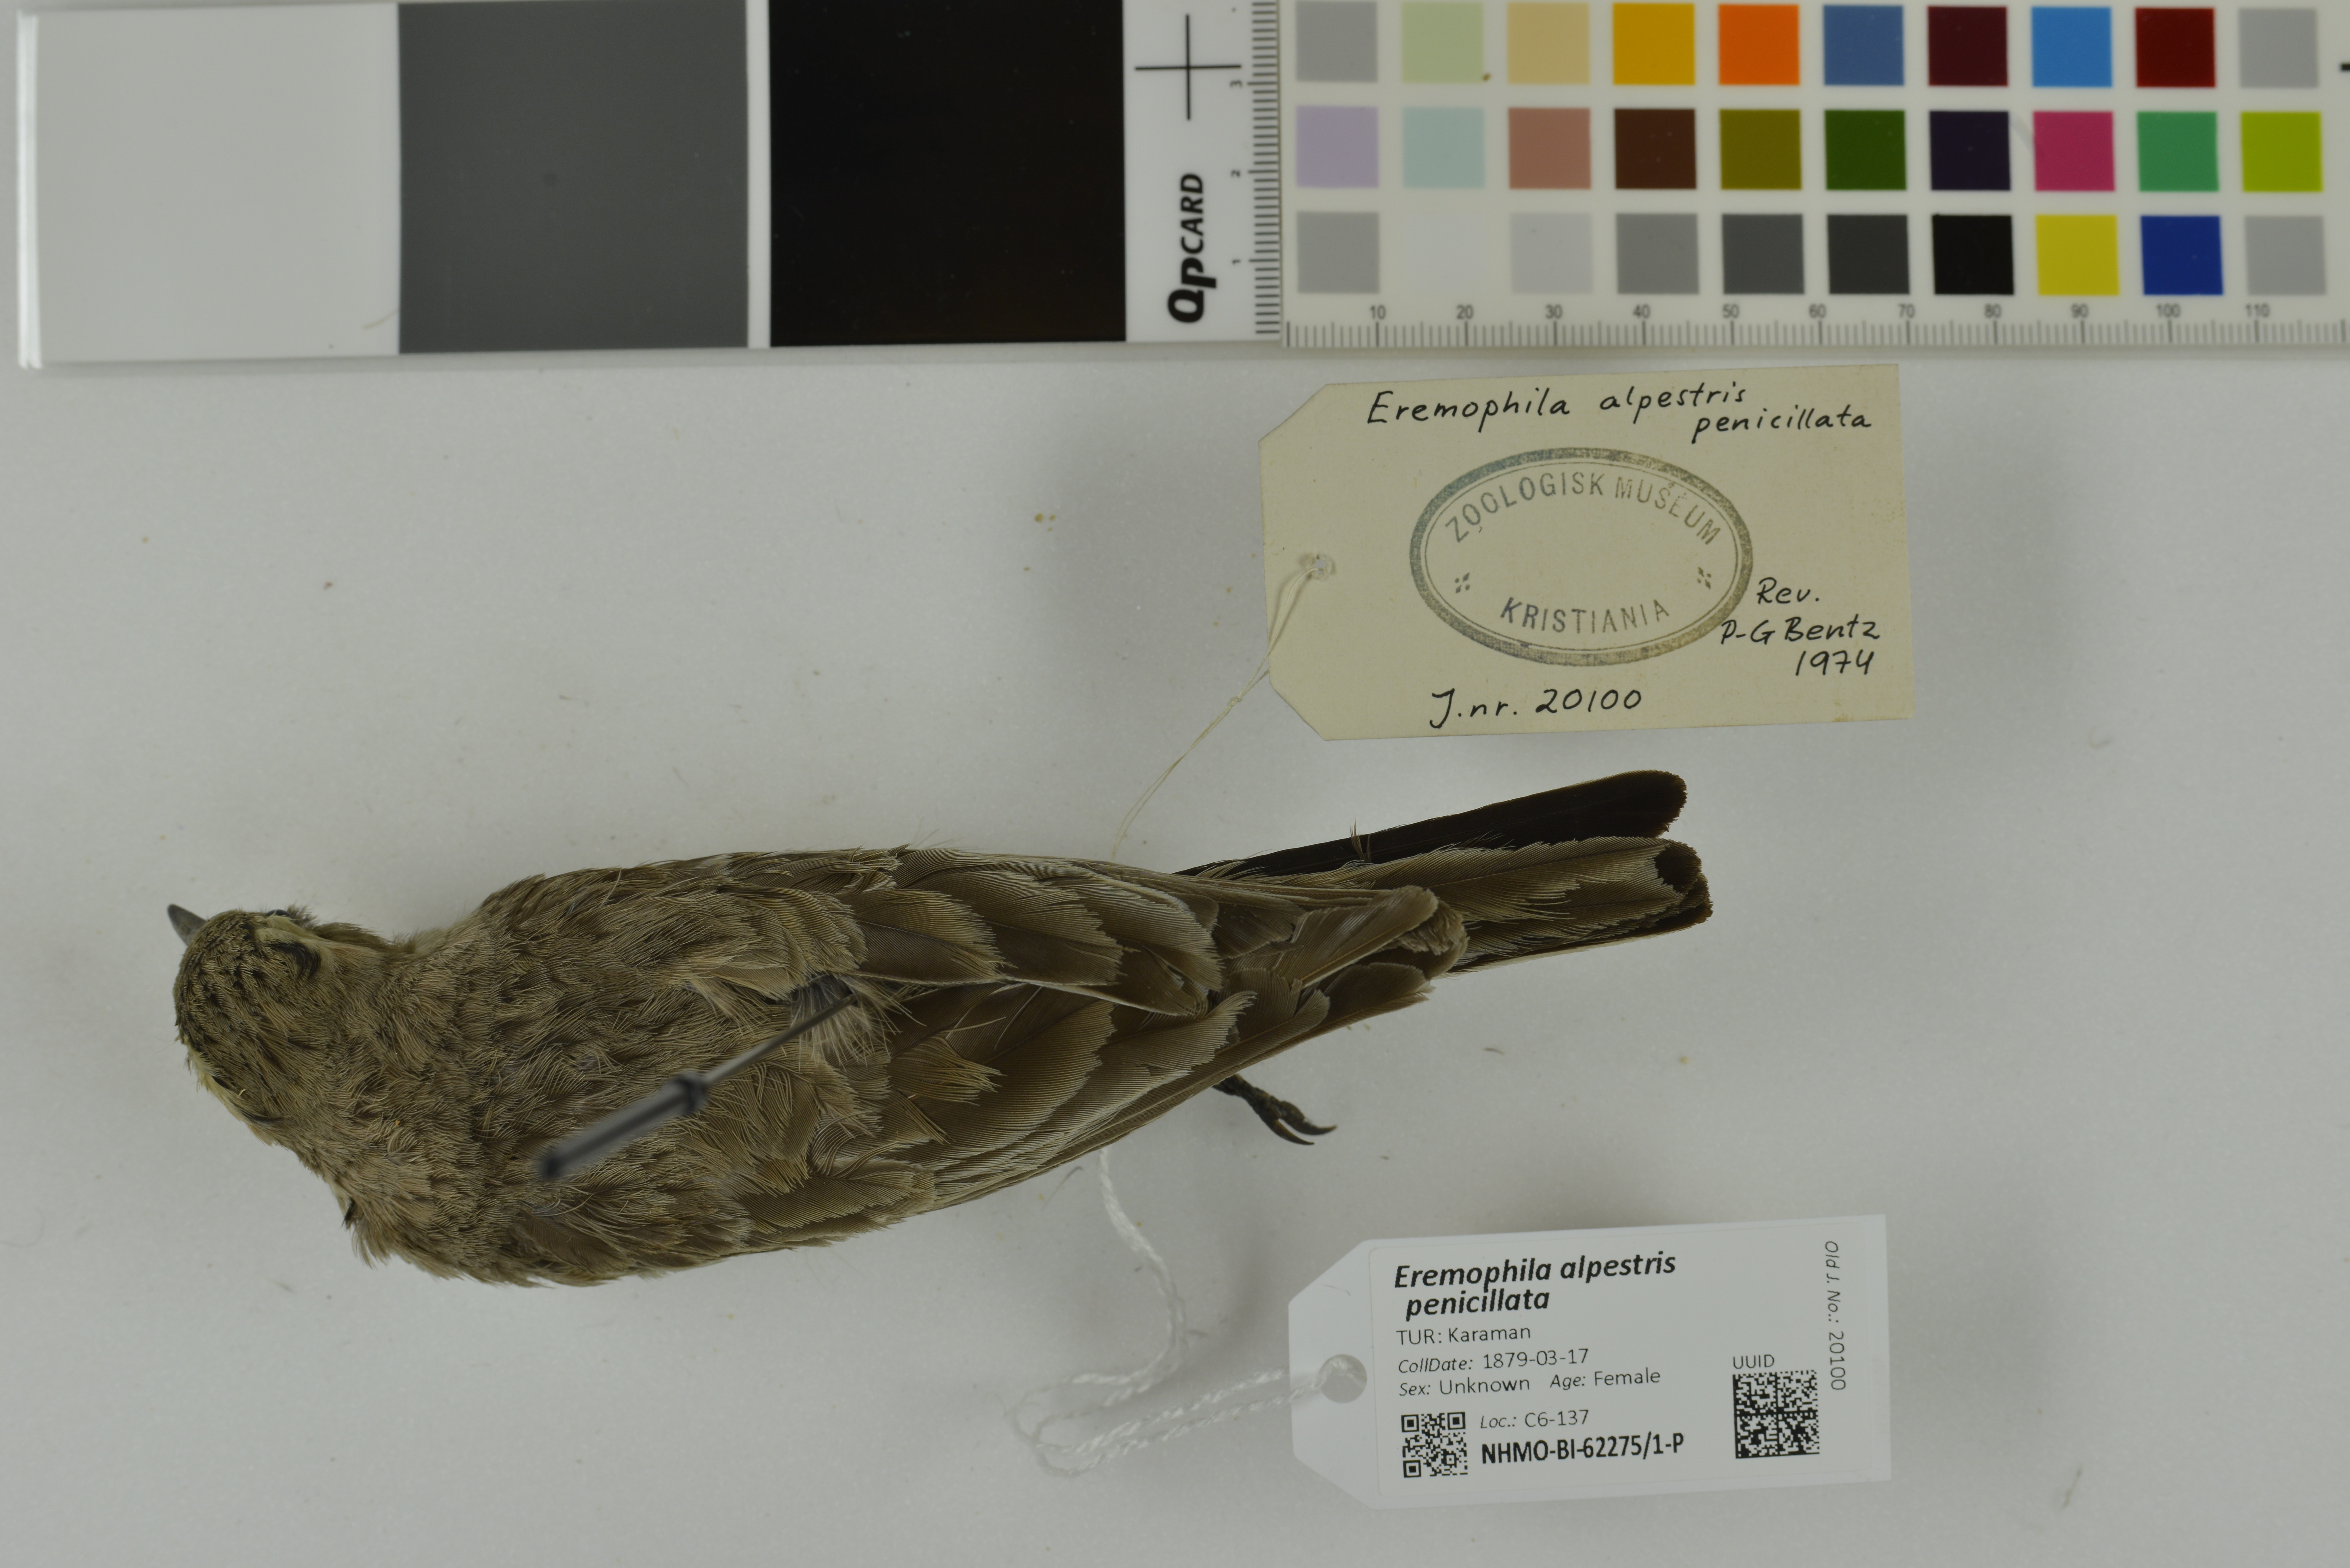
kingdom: Animalia
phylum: Chordata
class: Aves
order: Passeriformes
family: Alaudidae
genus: Eremophila
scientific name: Eremophila alpestris
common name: Horned lark
